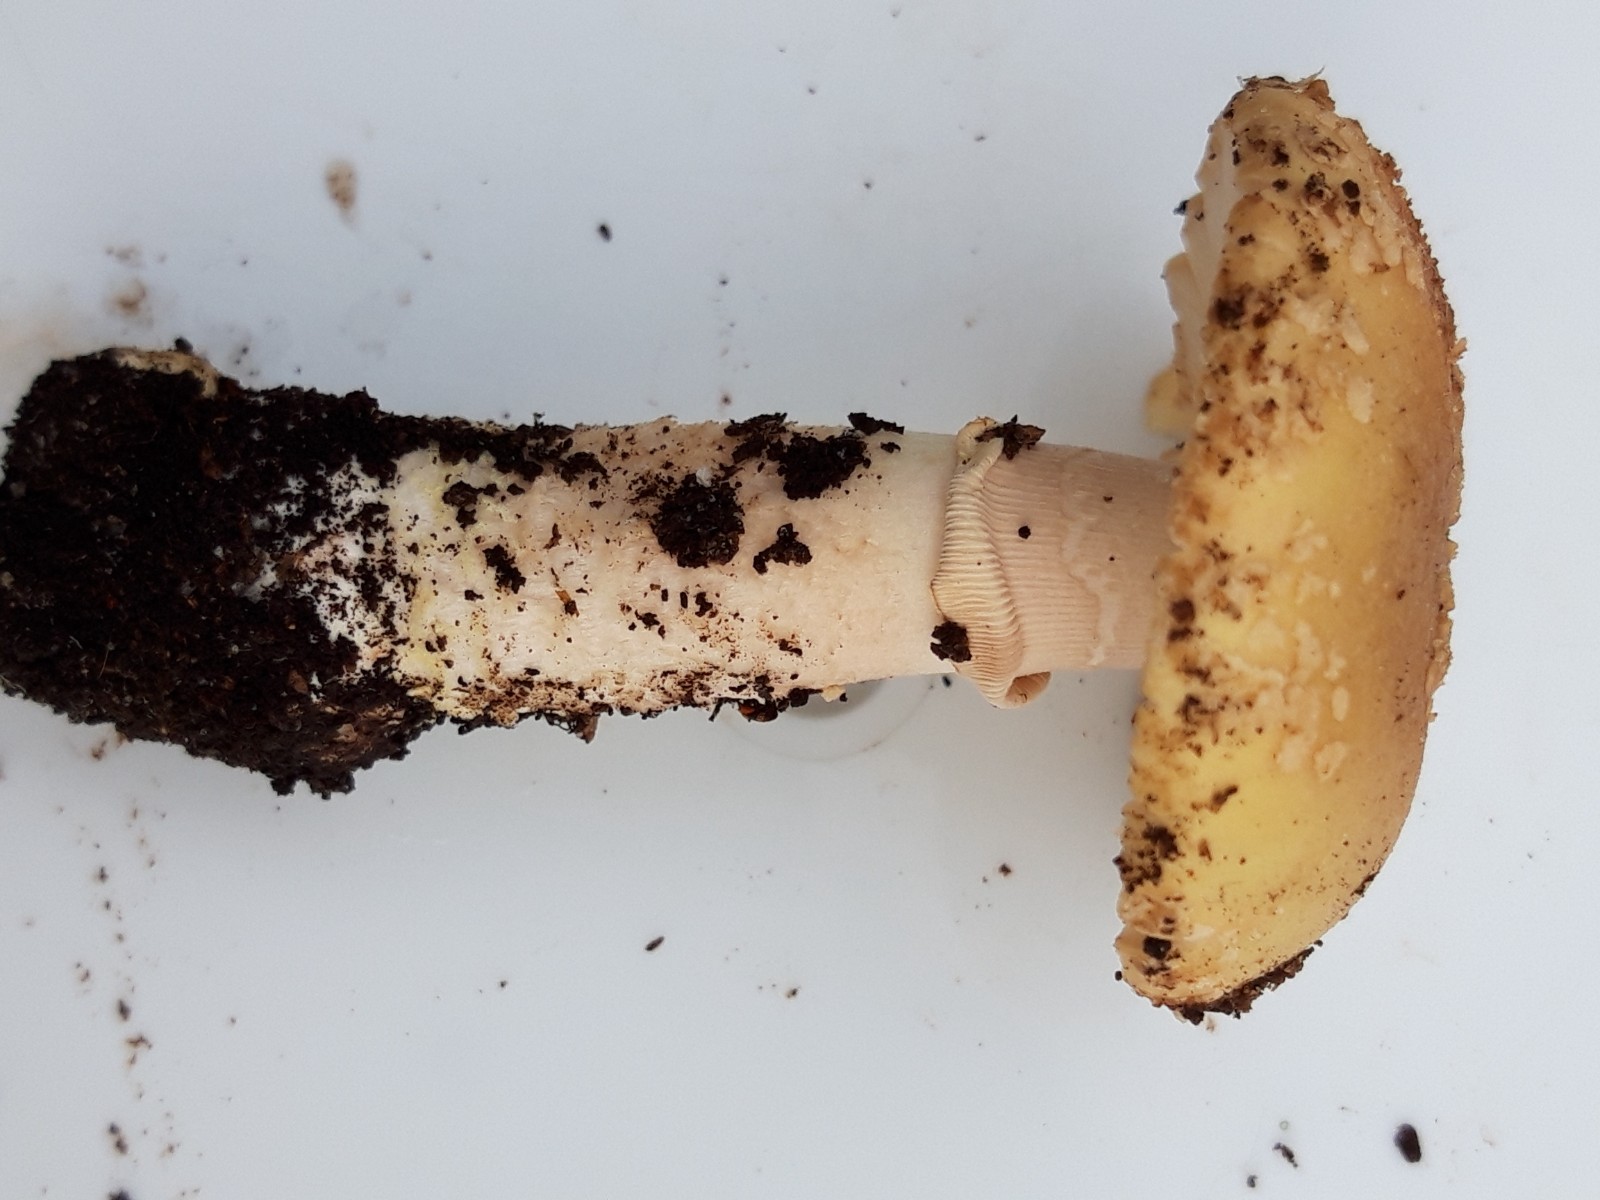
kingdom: Fungi
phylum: Basidiomycota
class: Agaricomycetes
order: Agaricales
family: Amanitaceae
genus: Amanita
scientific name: Amanita
